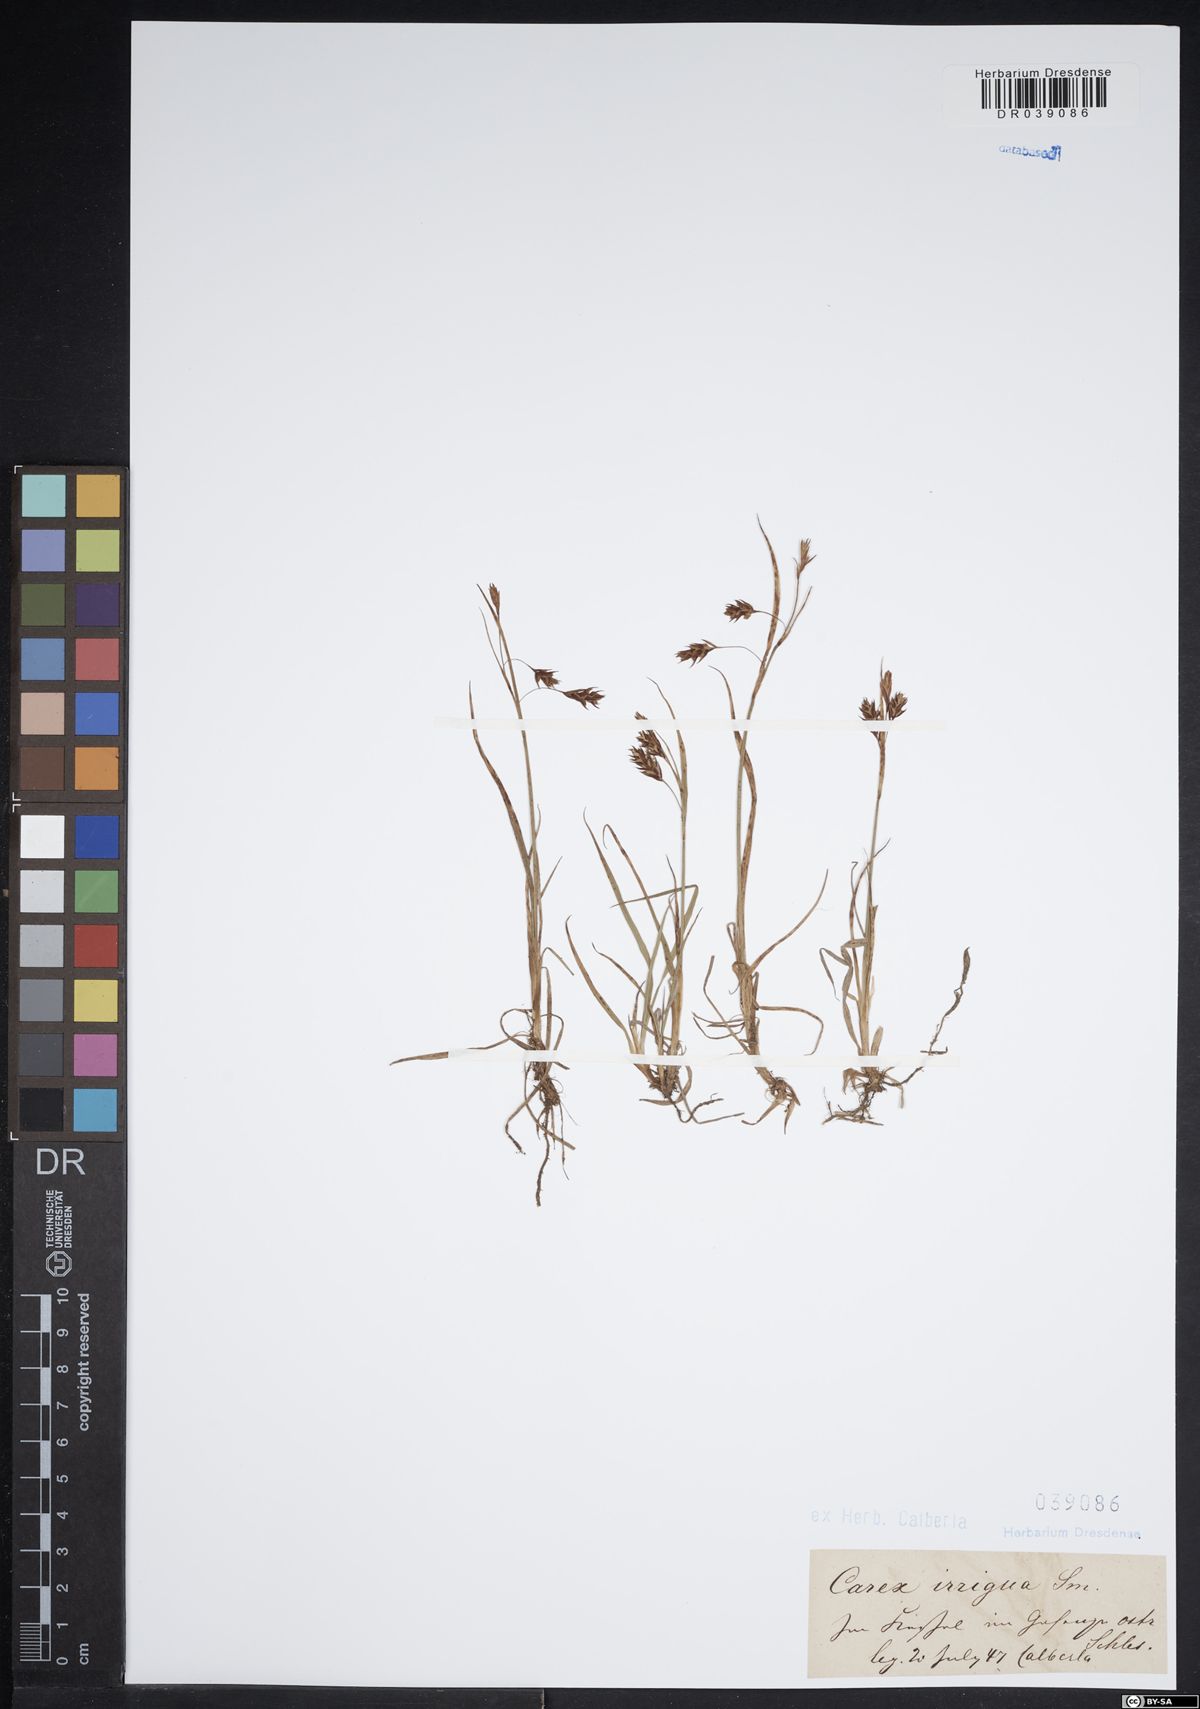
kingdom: Plantae
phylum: Tracheophyta
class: Liliopsida
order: Poales
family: Cyperaceae
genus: Carex
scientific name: Carex magellanica
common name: Bog sedge
